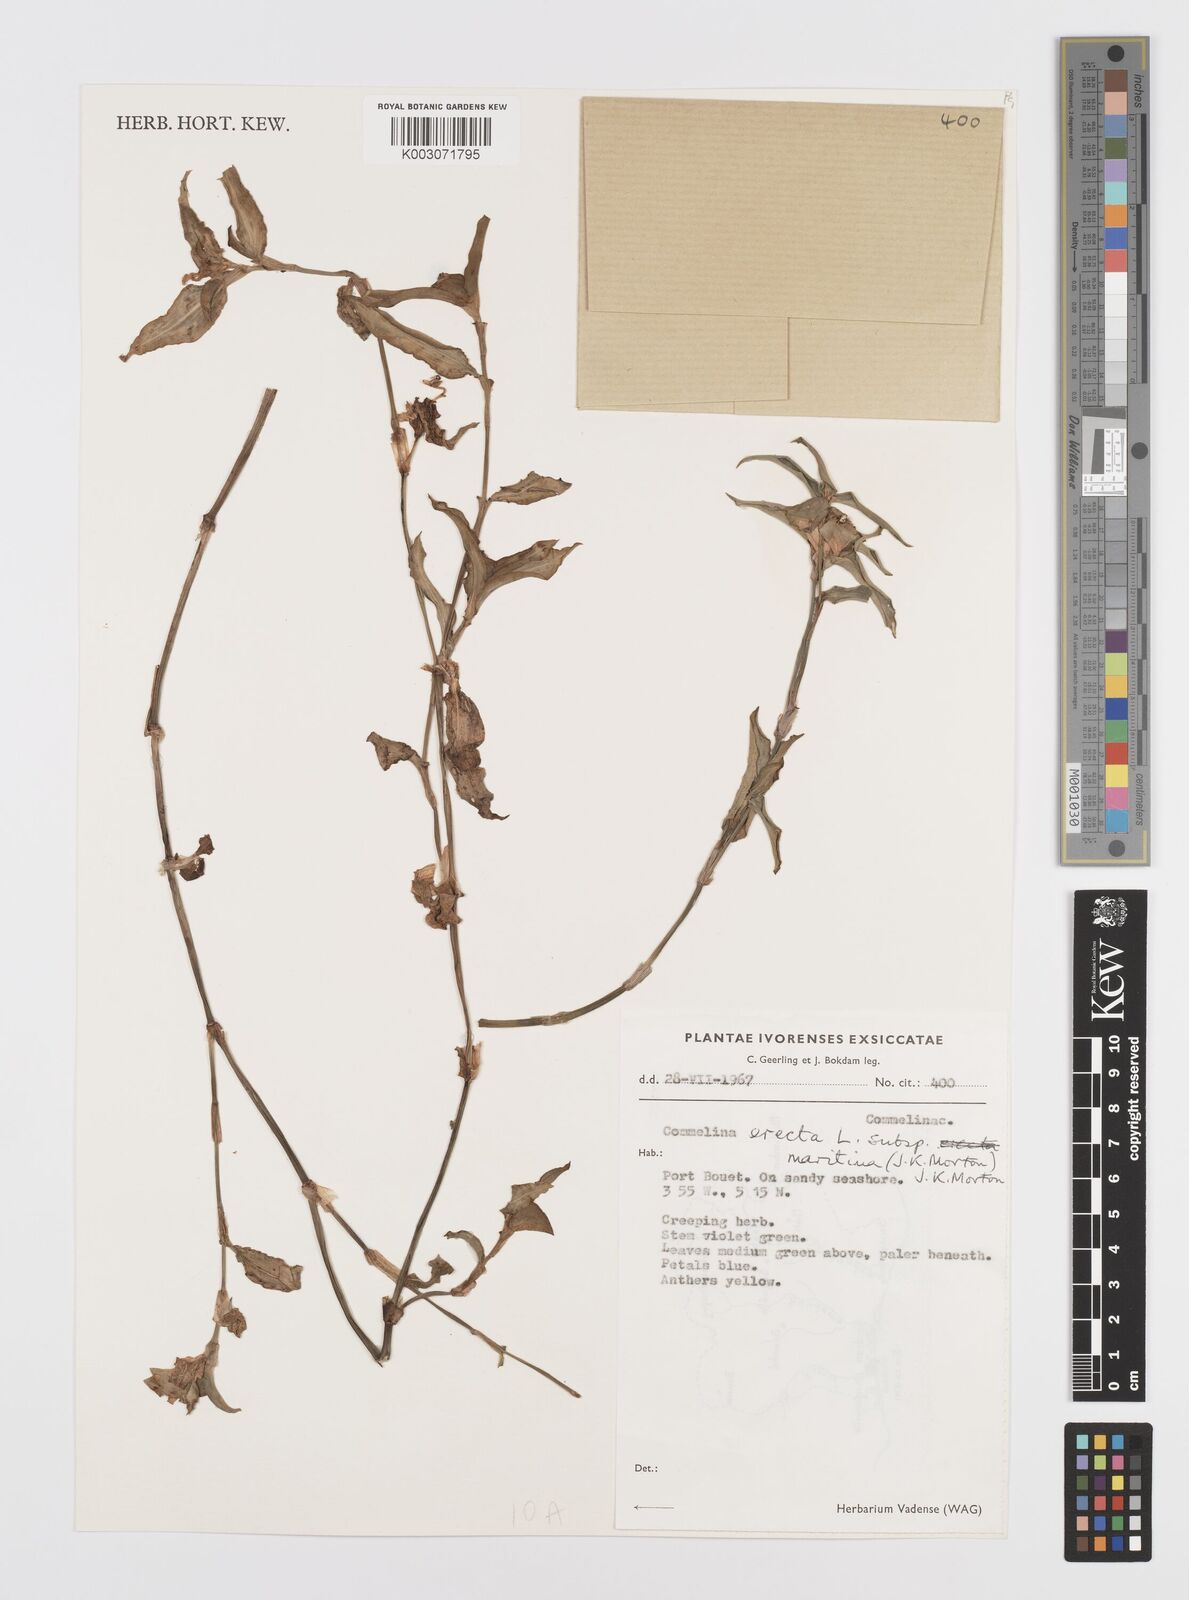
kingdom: Plantae
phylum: Tracheophyta
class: Liliopsida
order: Commelinales
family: Commelinaceae
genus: Commelina
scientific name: Commelina erecta
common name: Blousel blommetjie
